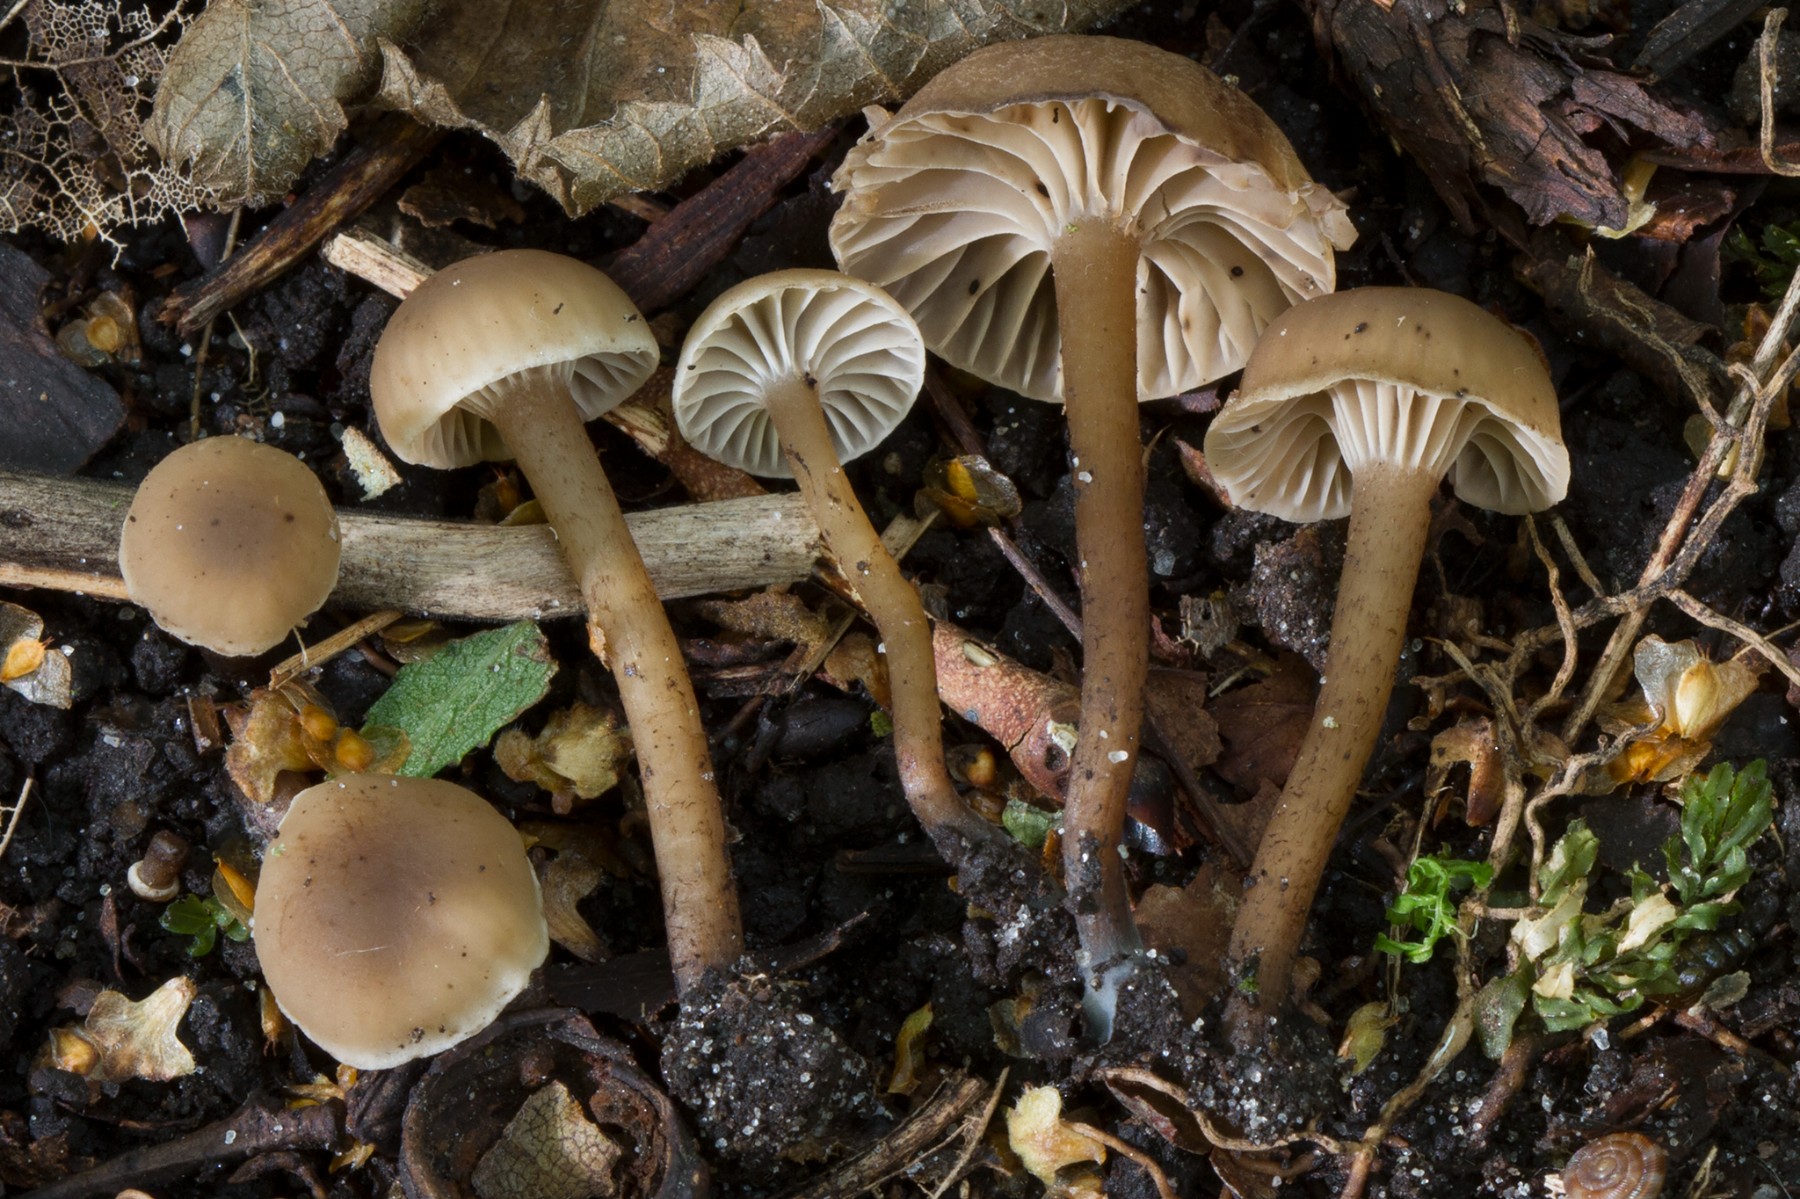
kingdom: Fungi
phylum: Basidiomycota
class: Agaricomycetes
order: Agaricales
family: Clavariaceae
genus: Hodophilus
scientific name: Hodophilus foetens
